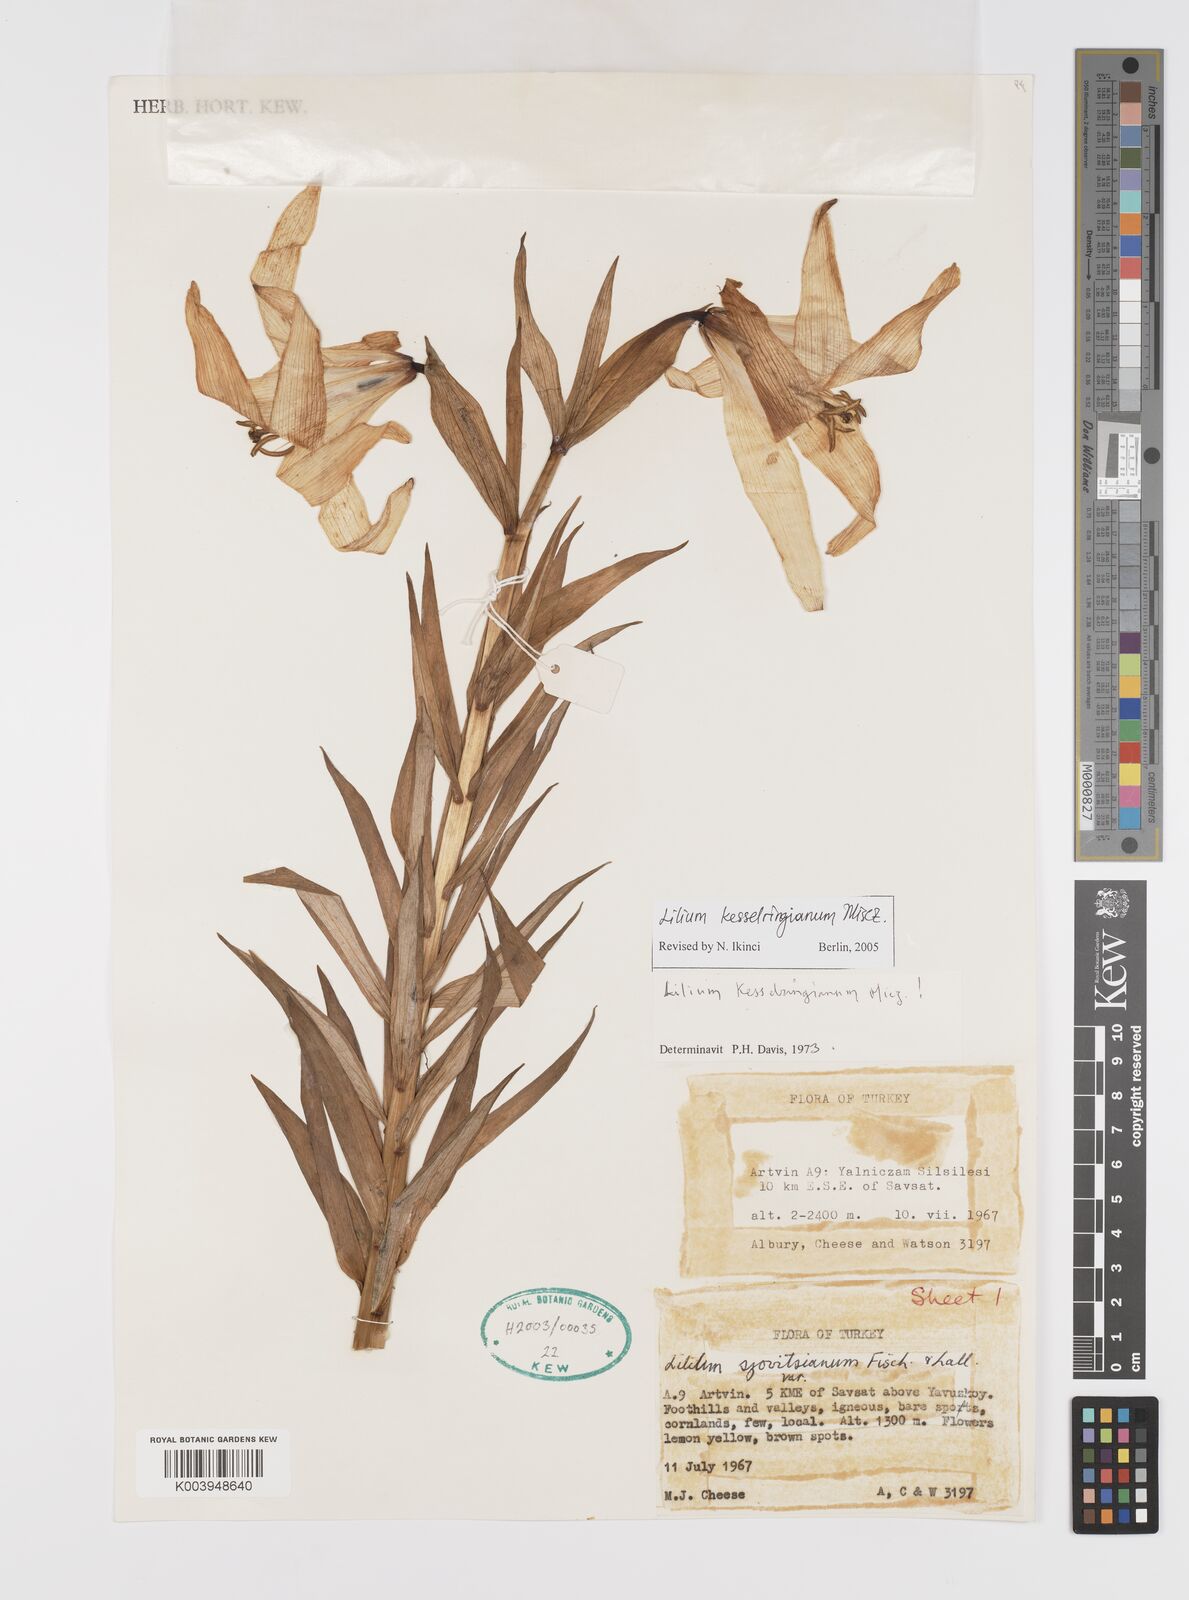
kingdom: Plantae
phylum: Tracheophyta
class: Liliopsida
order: Liliales
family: Liliaceae
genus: Lilium
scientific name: Lilium kesselringianum
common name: Kesselring lily
